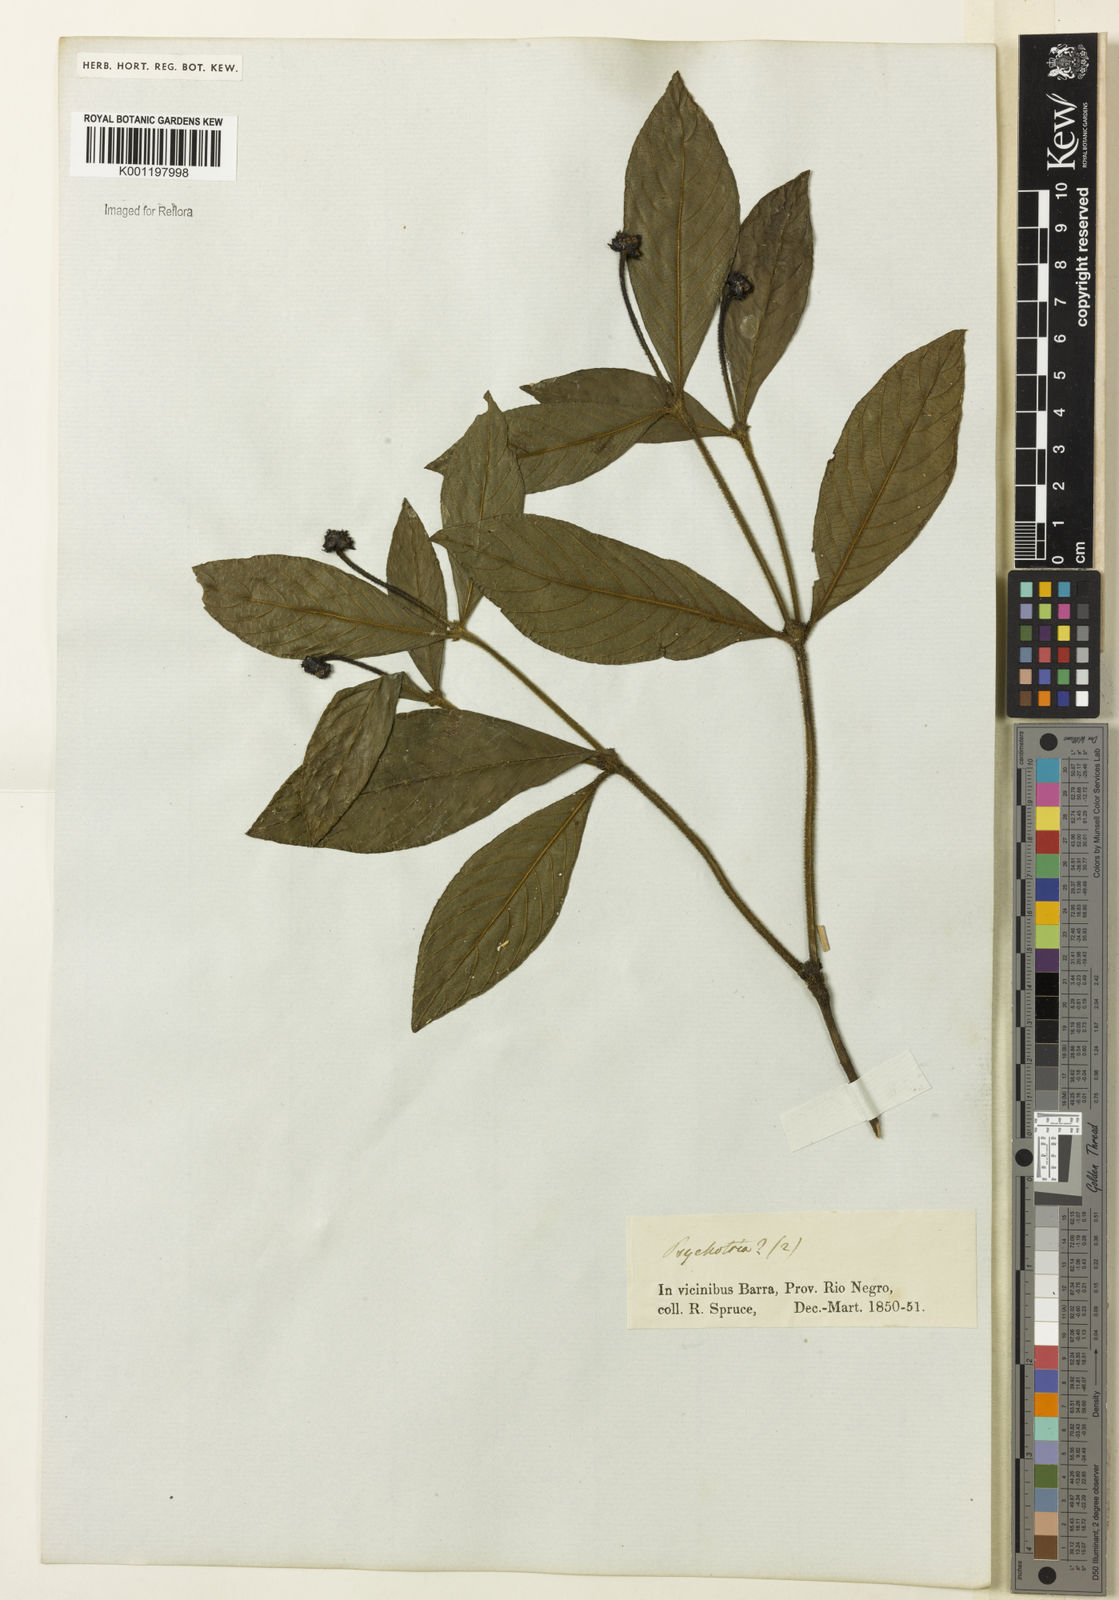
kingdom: Plantae
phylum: Tracheophyta
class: Magnoliopsida
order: Gentianales
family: Rubiaceae
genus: Psychotria
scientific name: Psychotria
